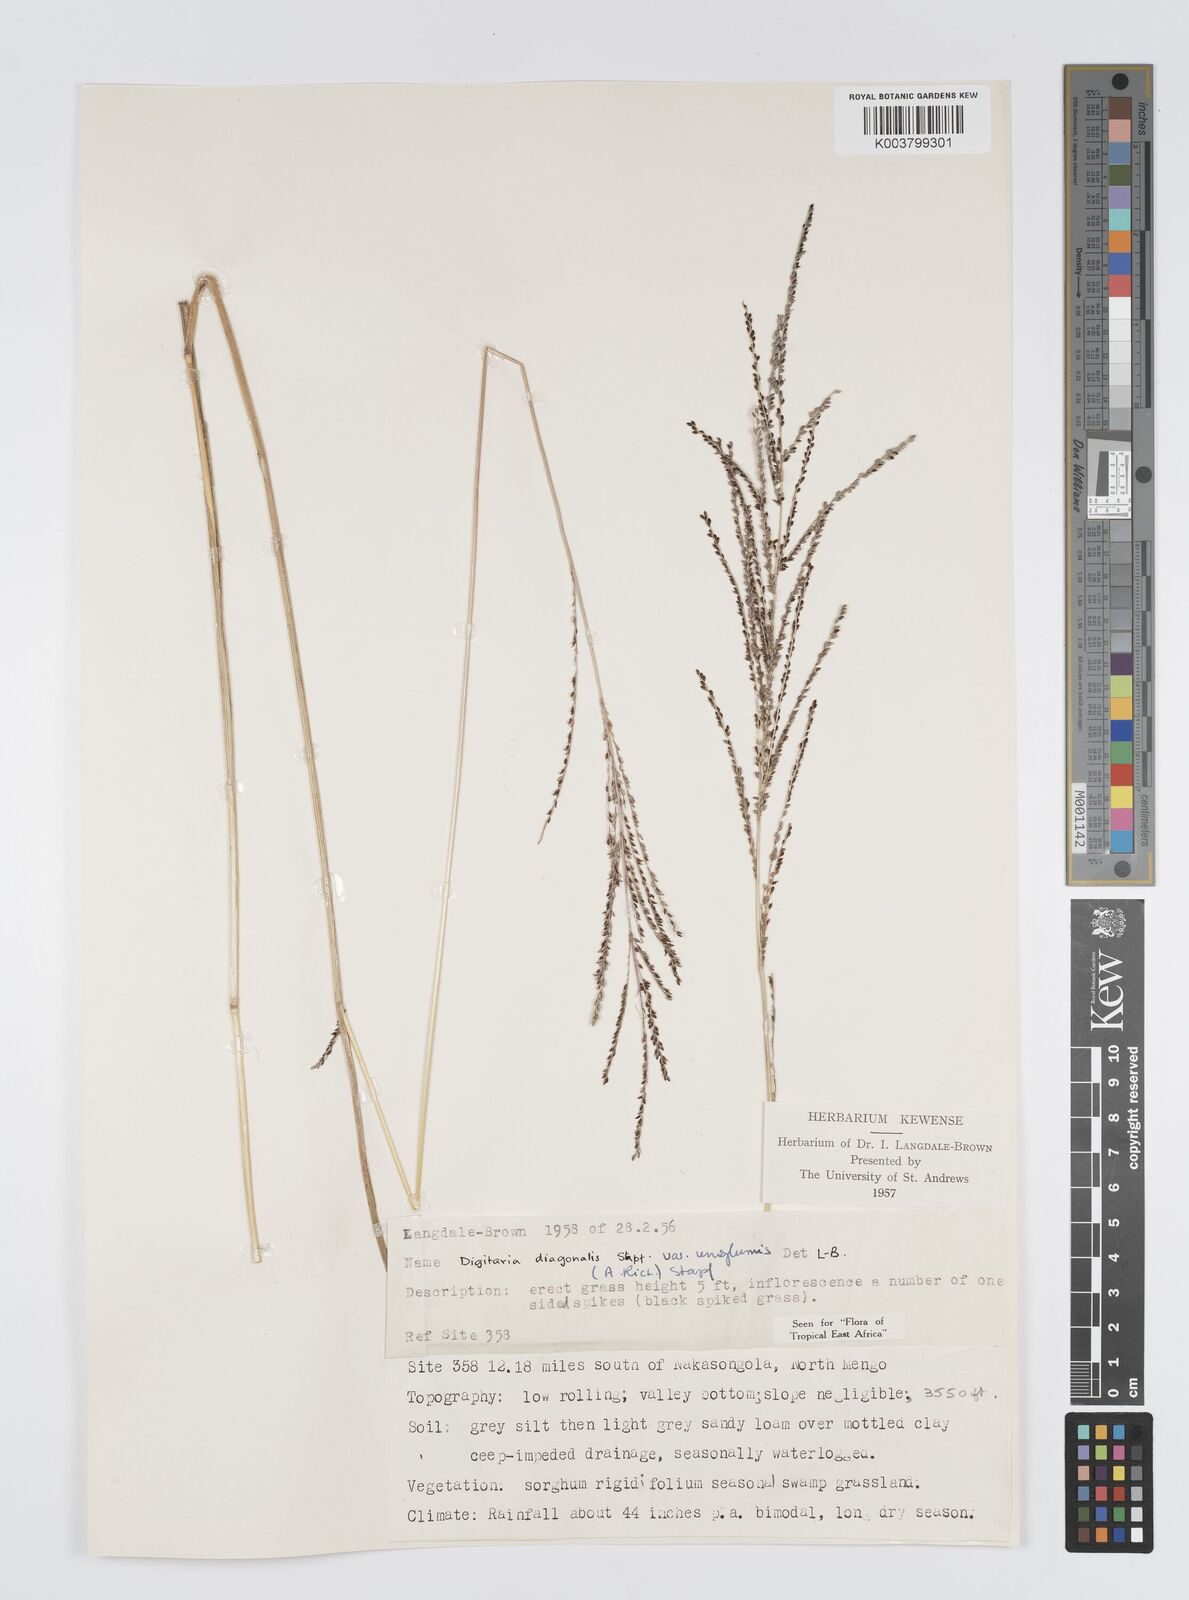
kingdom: Plantae
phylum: Tracheophyta
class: Liliopsida
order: Poales
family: Poaceae
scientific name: Poaceae
